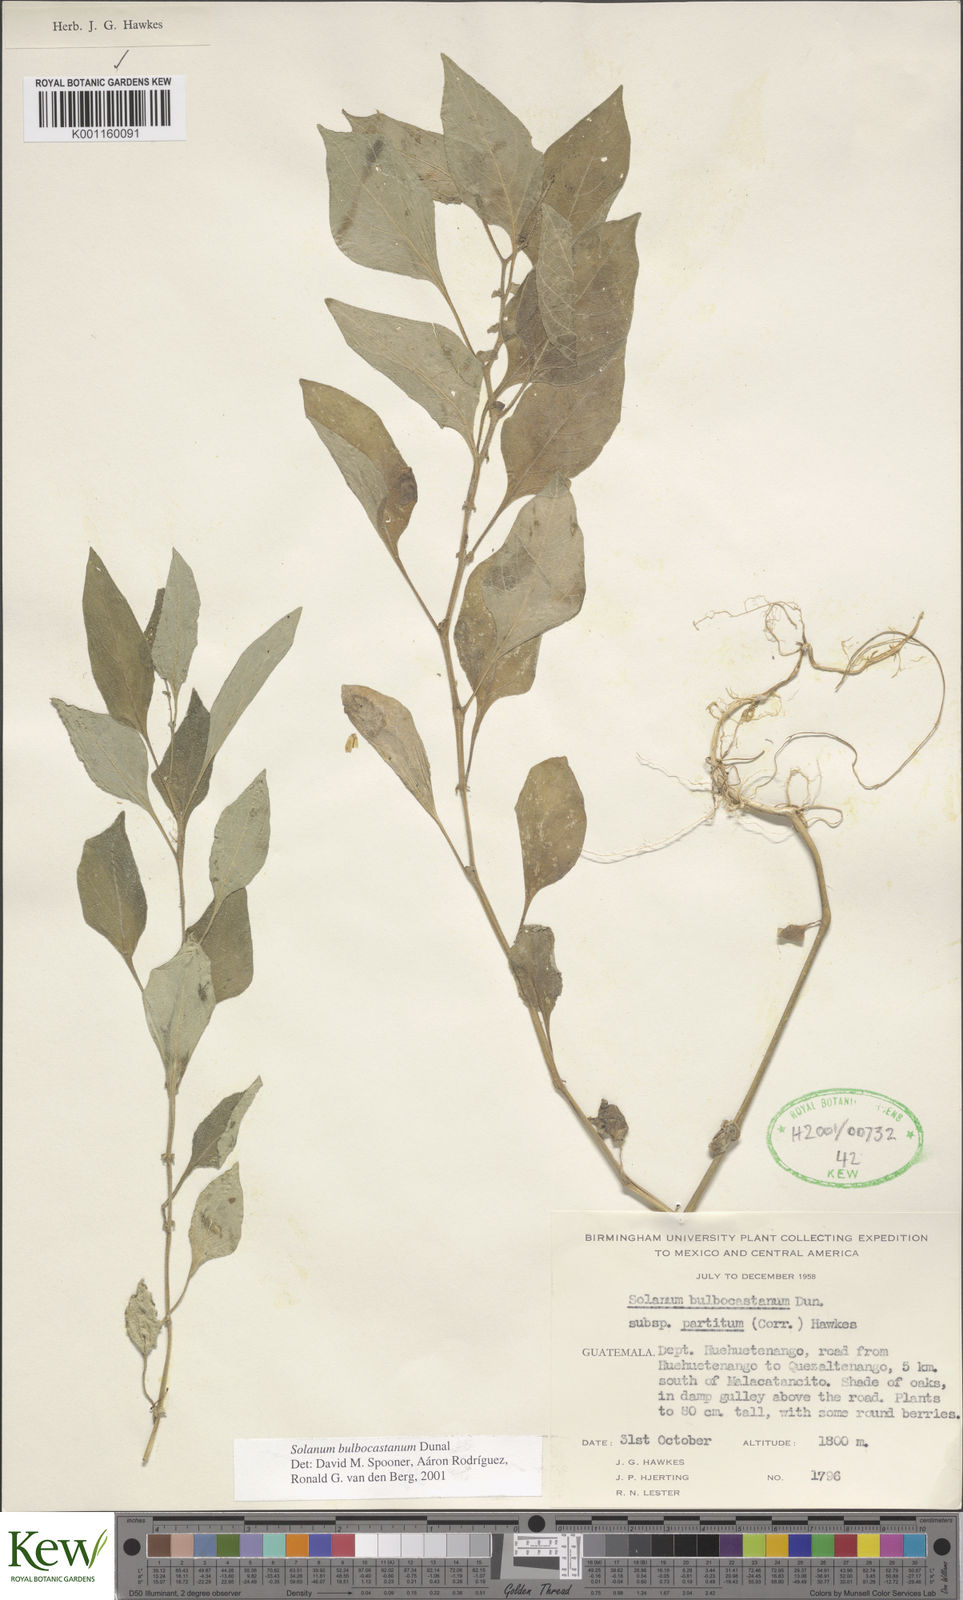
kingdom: Plantae
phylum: Tracheophyta
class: Magnoliopsida
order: Solanales
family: Solanaceae
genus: Solanum
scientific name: Solanum bulbocastanum
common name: Ornamental nightshade
